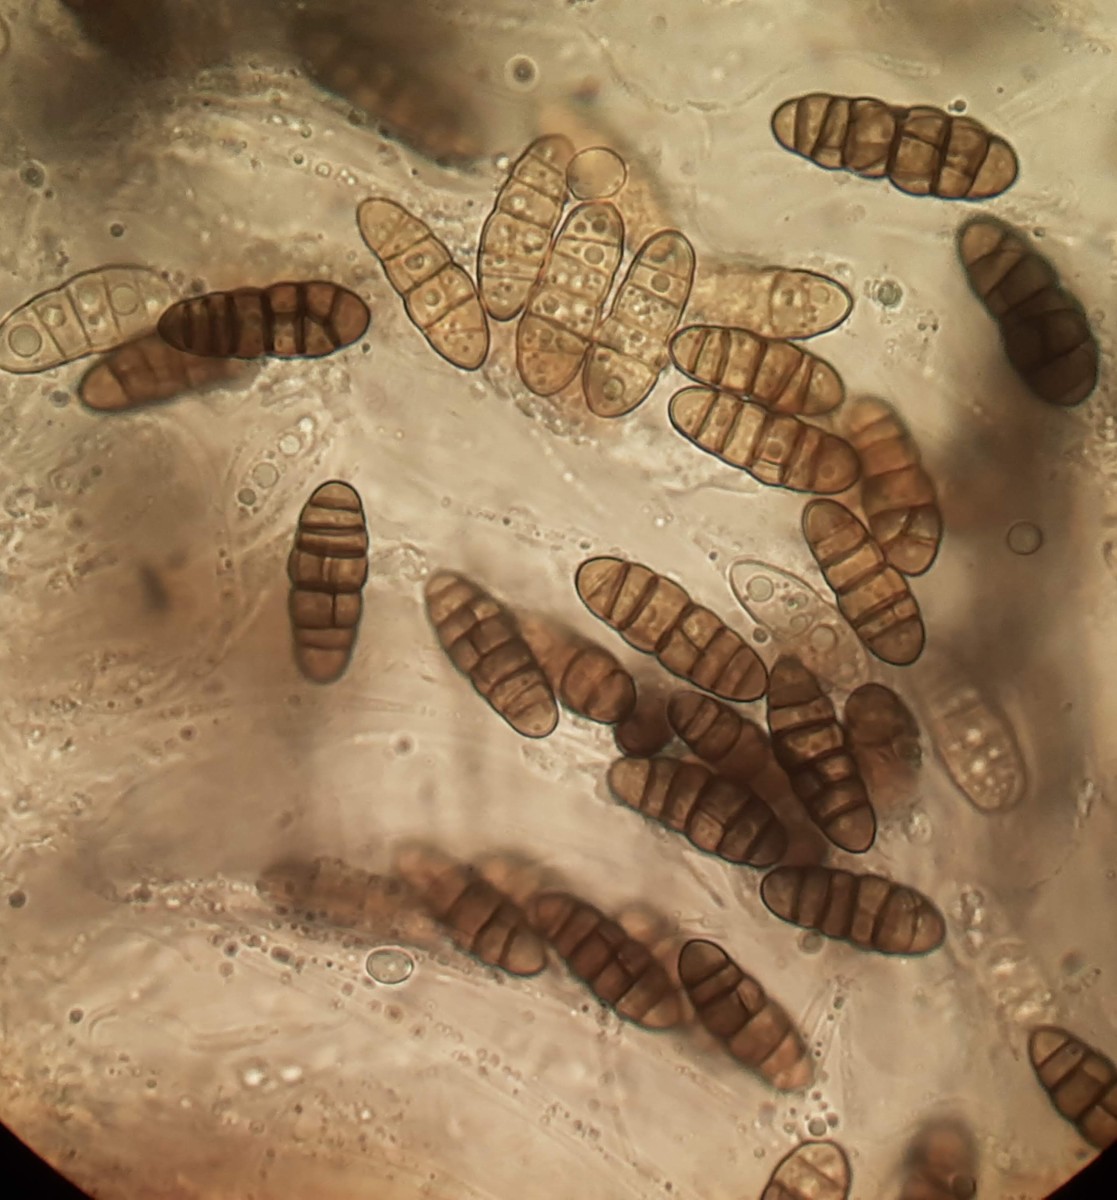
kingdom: Fungi
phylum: Ascomycota
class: Dothideomycetes
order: Pleosporales
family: Lophiostomataceae
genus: Lophiostoma
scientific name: Lophiostoma compressum
